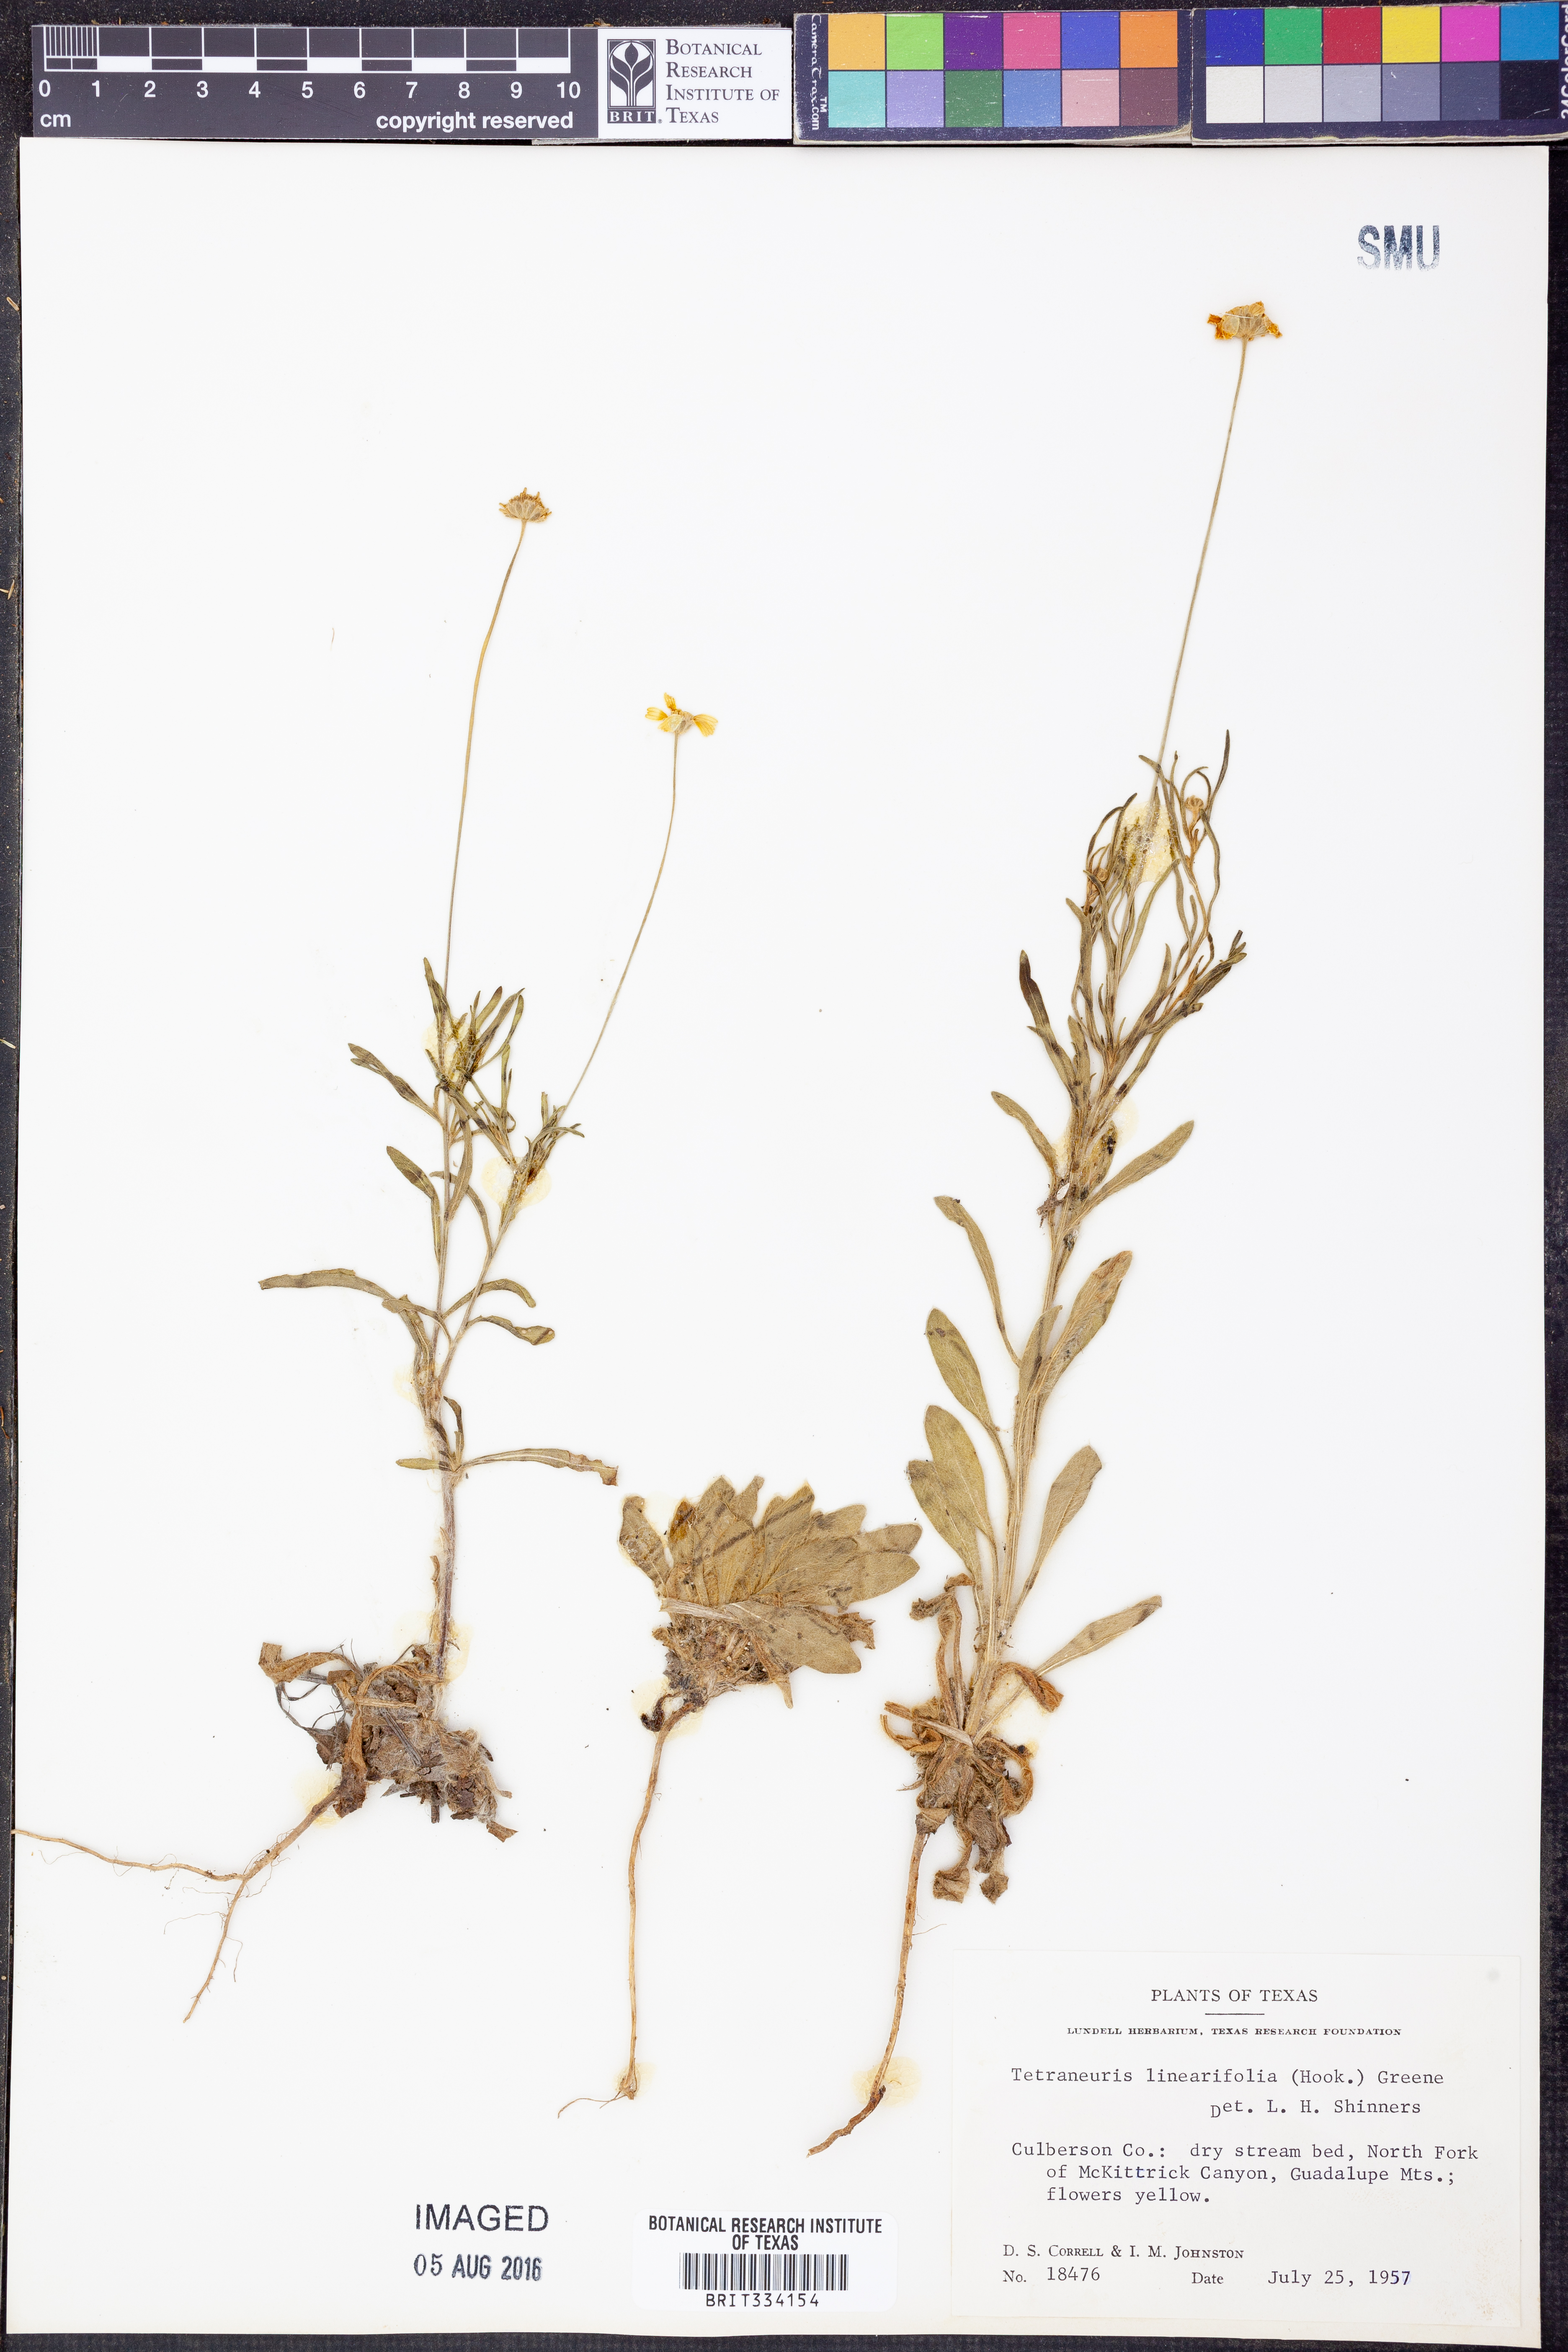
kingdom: Plantae
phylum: Tracheophyta
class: Magnoliopsida
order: Asterales
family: Asteraceae
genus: Tetraneuris
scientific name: Tetraneuris linearifolia
